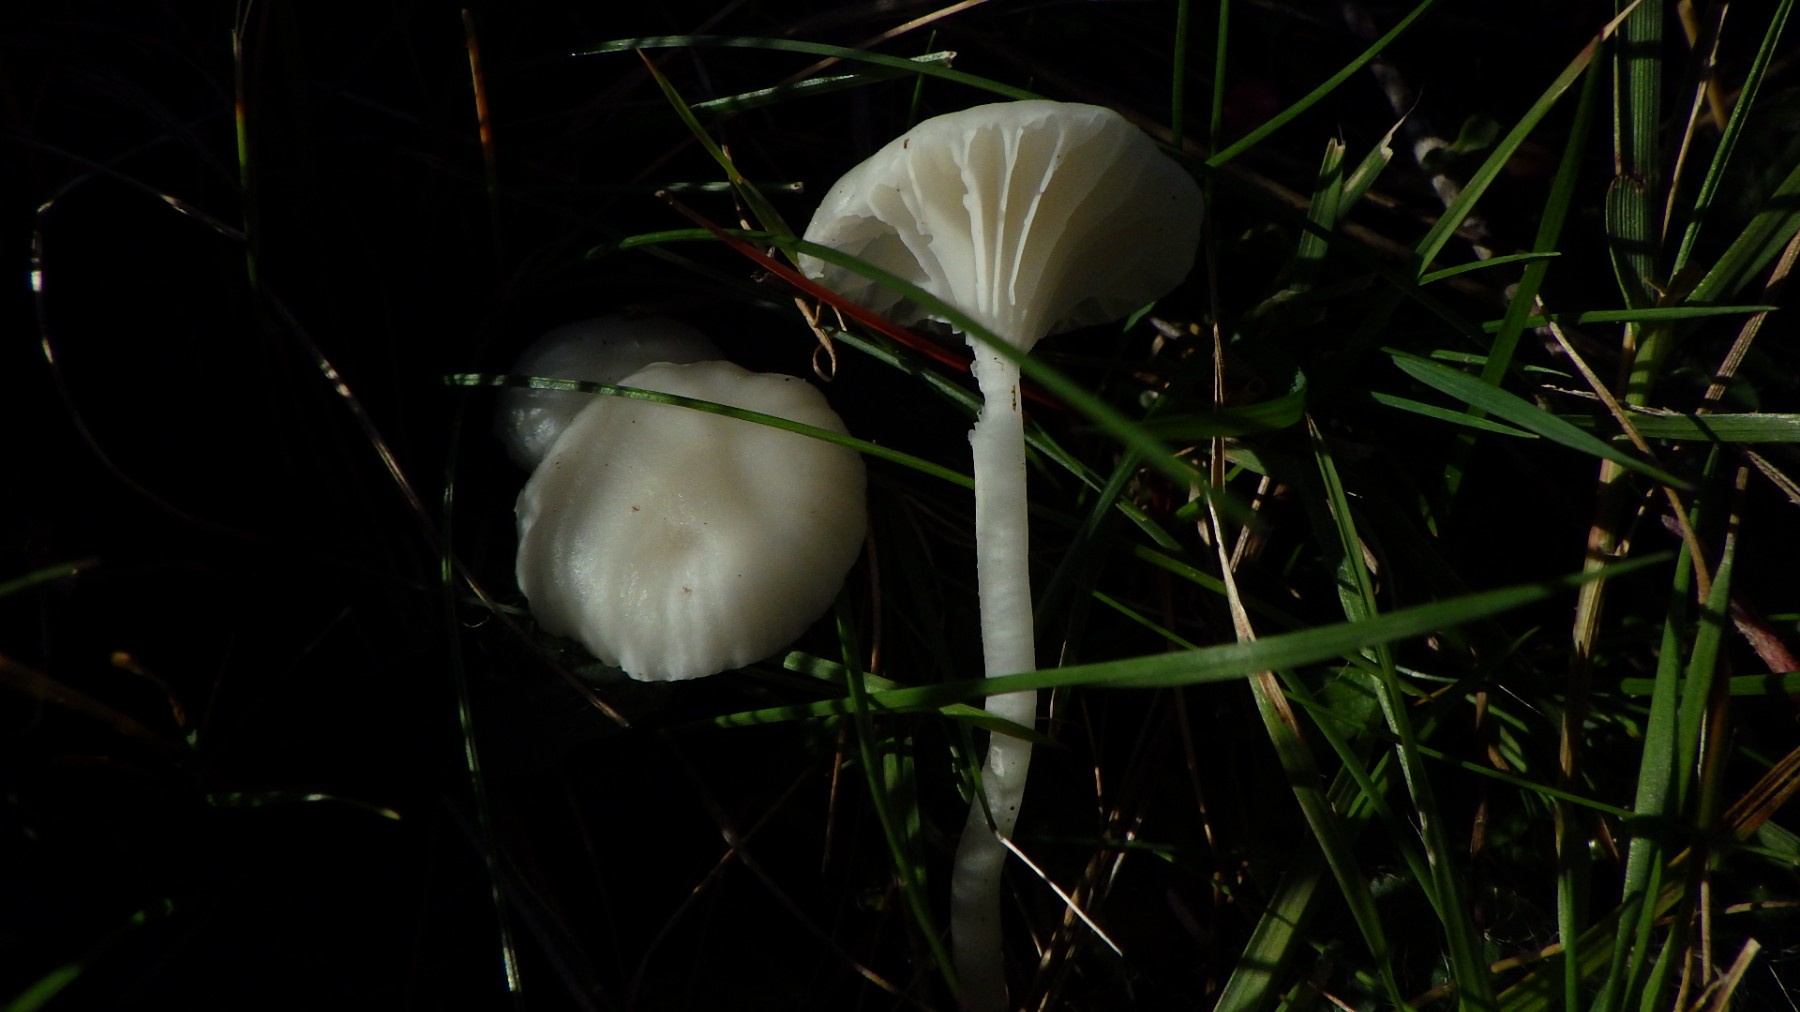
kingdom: Fungi
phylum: Basidiomycota
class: Agaricomycetes
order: Agaricales
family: Hygrophoraceae
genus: Cuphophyllus
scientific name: Cuphophyllus virgineus
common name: snehvid vokshat
